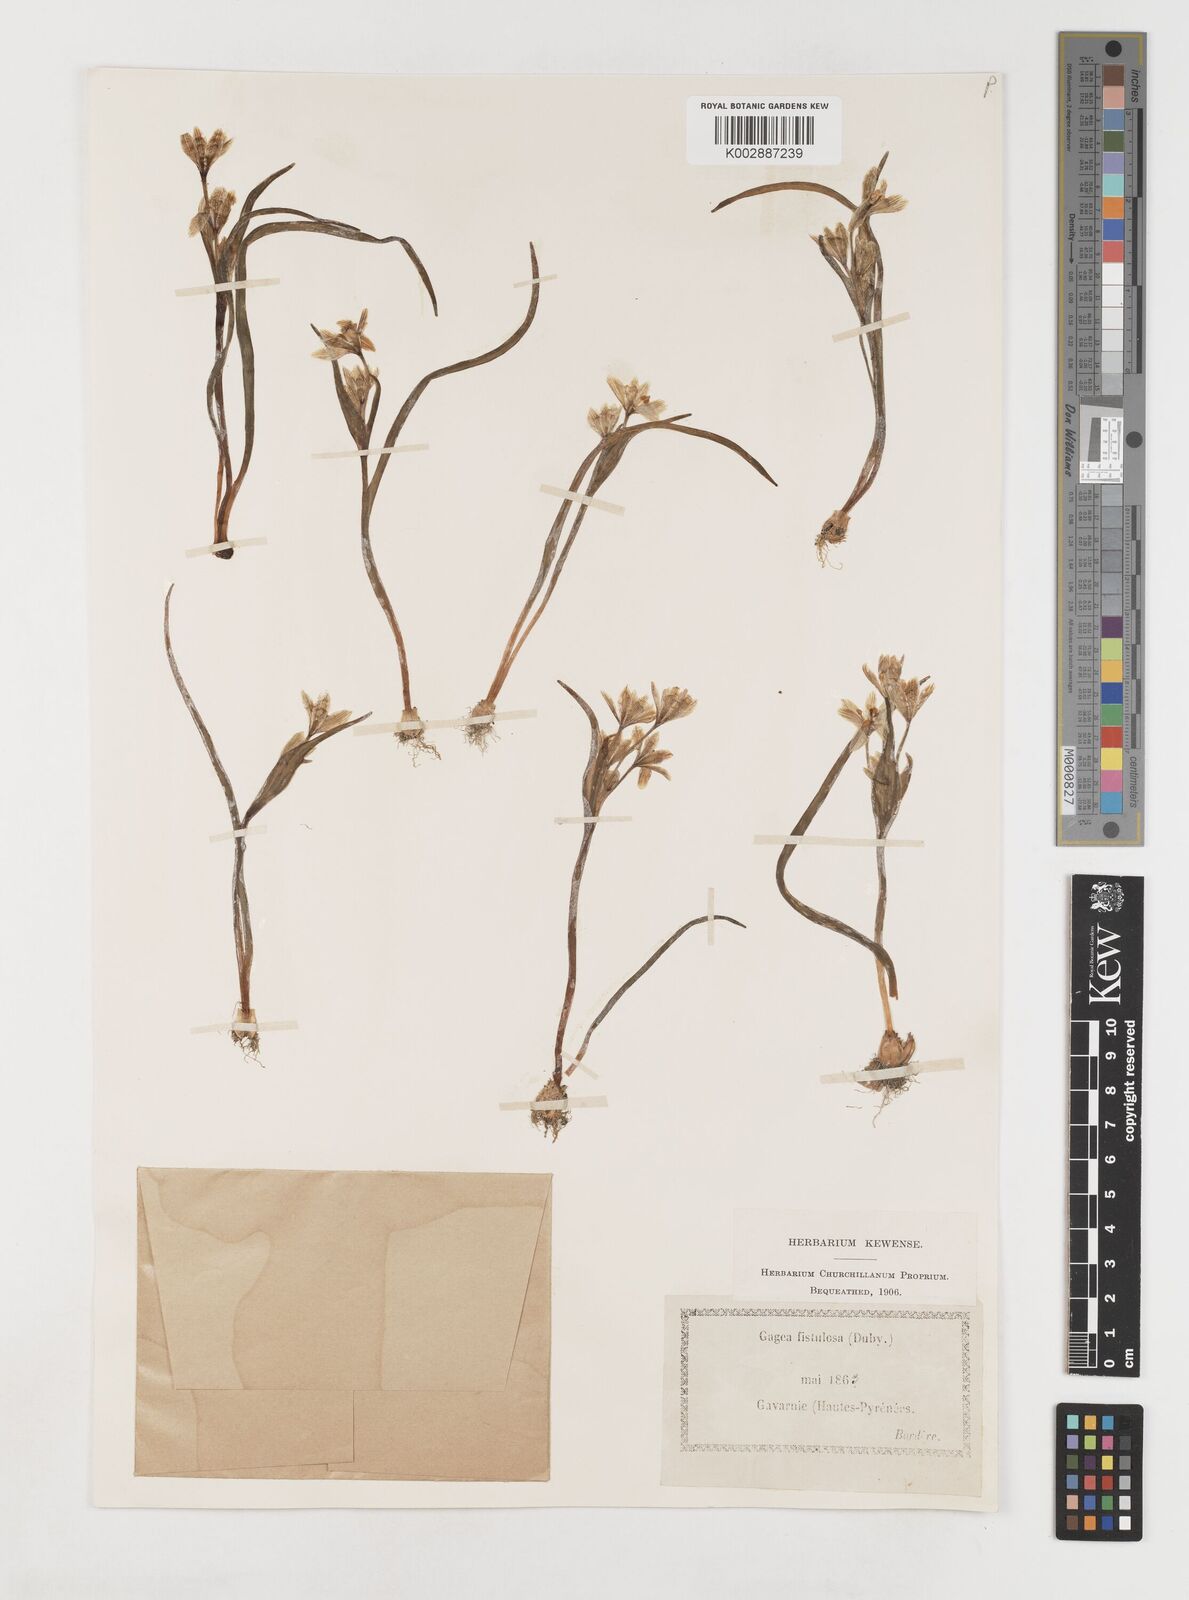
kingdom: Plantae
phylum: Tracheophyta
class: Liliopsida
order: Liliales
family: Liliaceae
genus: Gagea
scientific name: Gagea bohemica
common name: Early star-of-bethlehem
